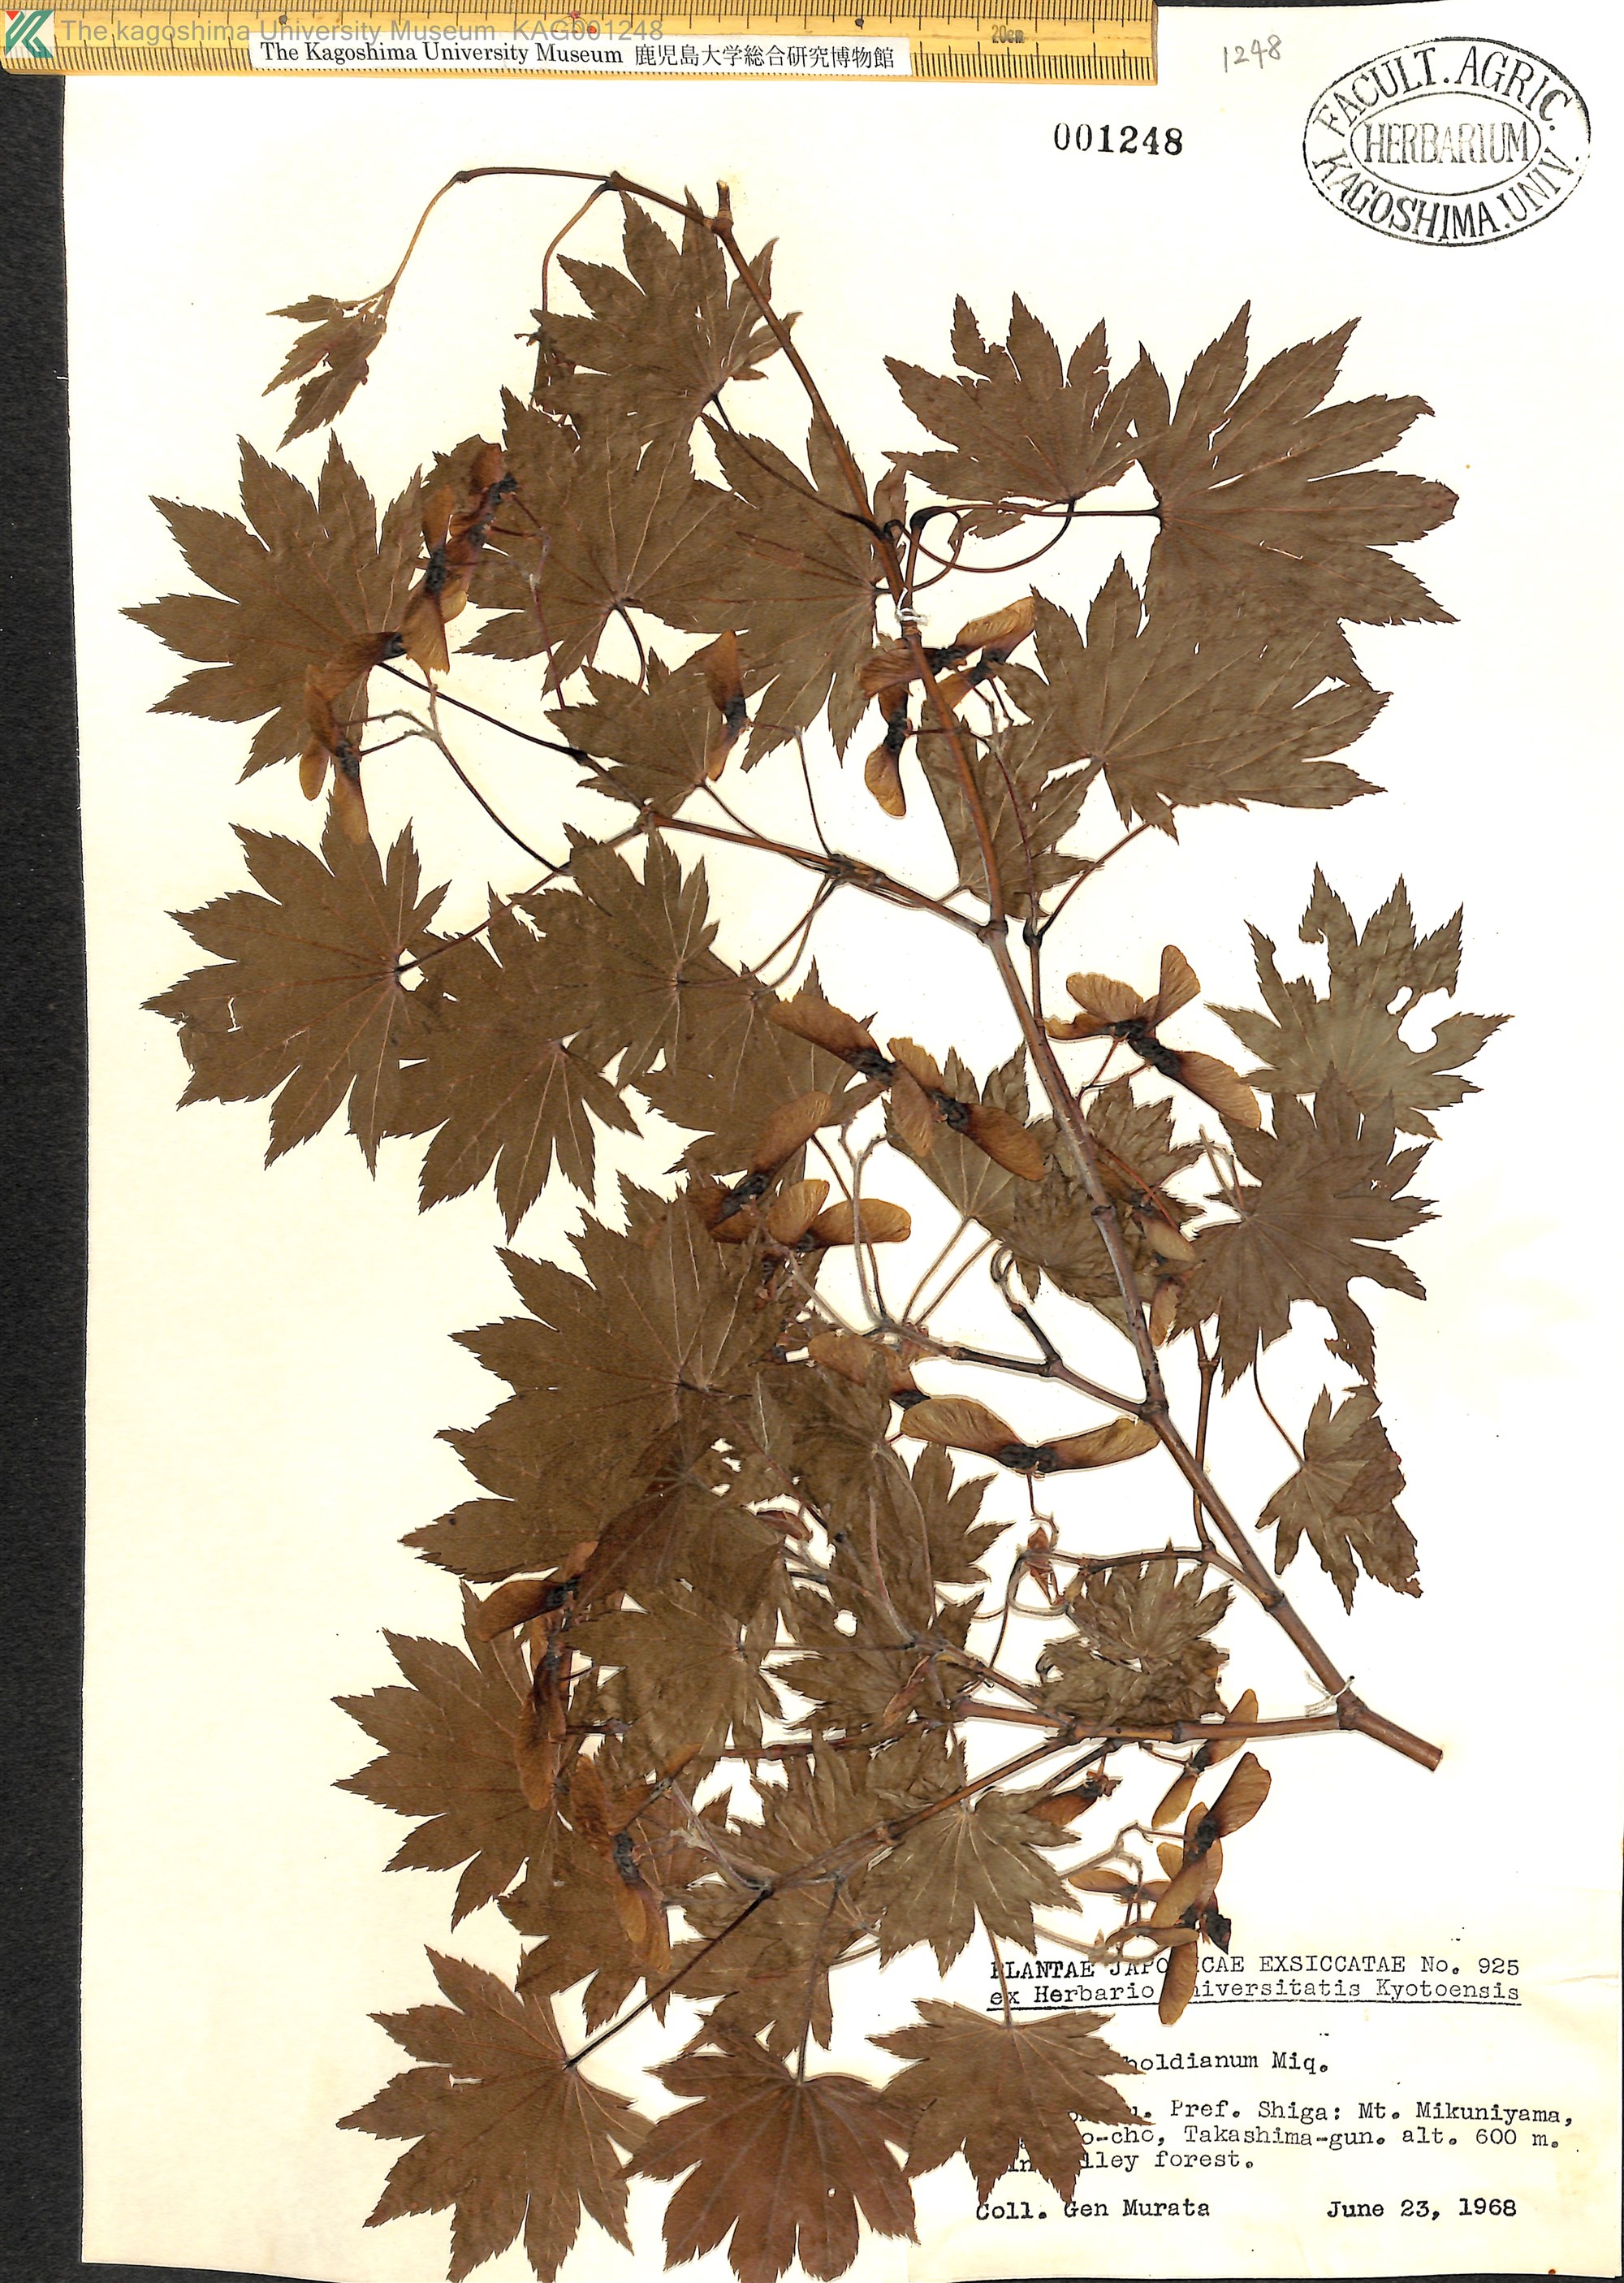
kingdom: Plantae
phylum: Tracheophyta
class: Magnoliopsida
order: Sapindales
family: Sapindaceae
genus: Acer
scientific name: Acer sieboldianum
